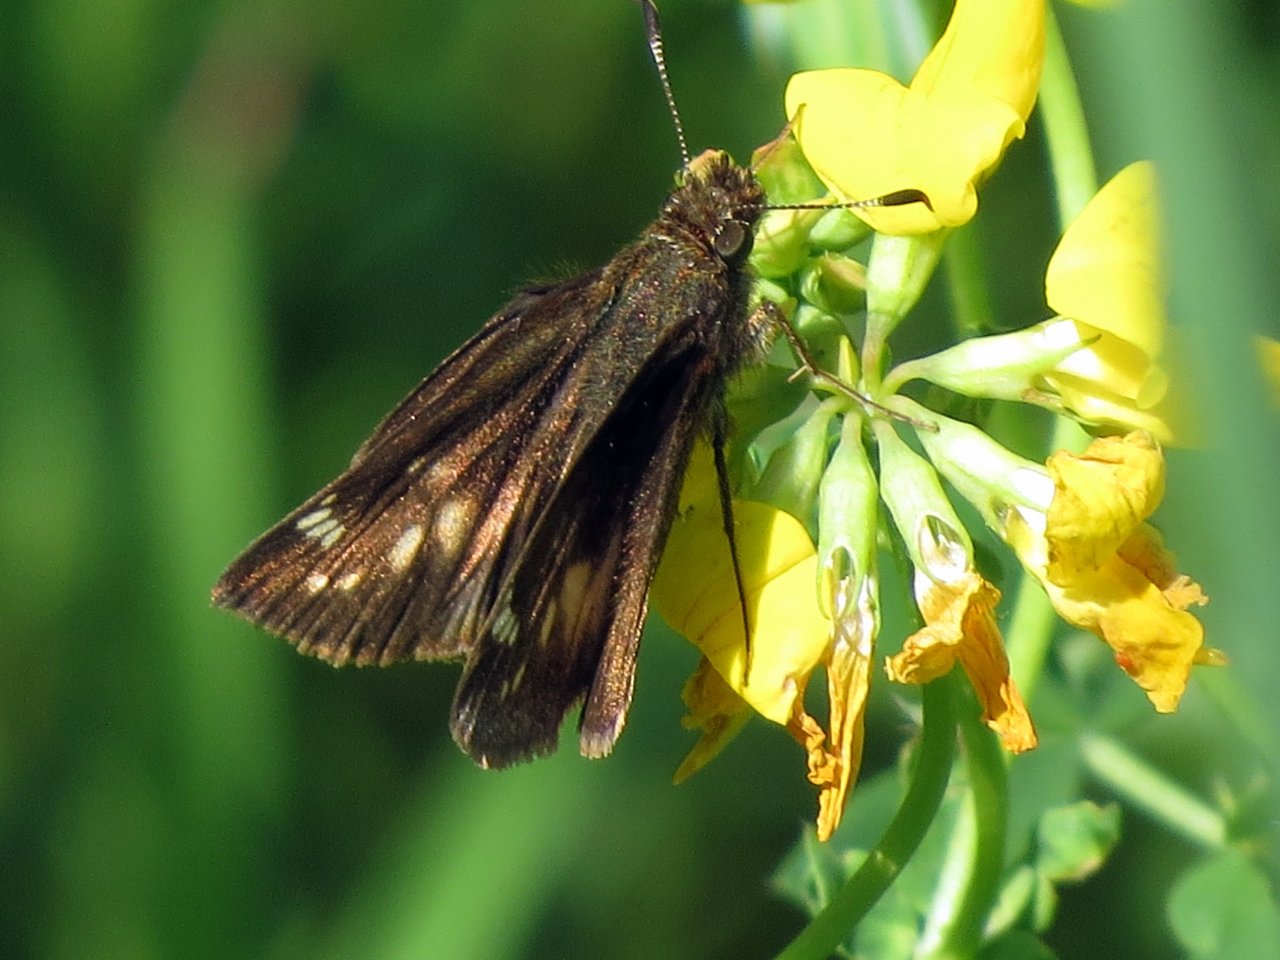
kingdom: Animalia
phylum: Arthropoda
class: Insecta
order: Lepidoptera
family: Hesperiidae
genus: Lon
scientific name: Lon hobomok
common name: Hobomok Skipper
